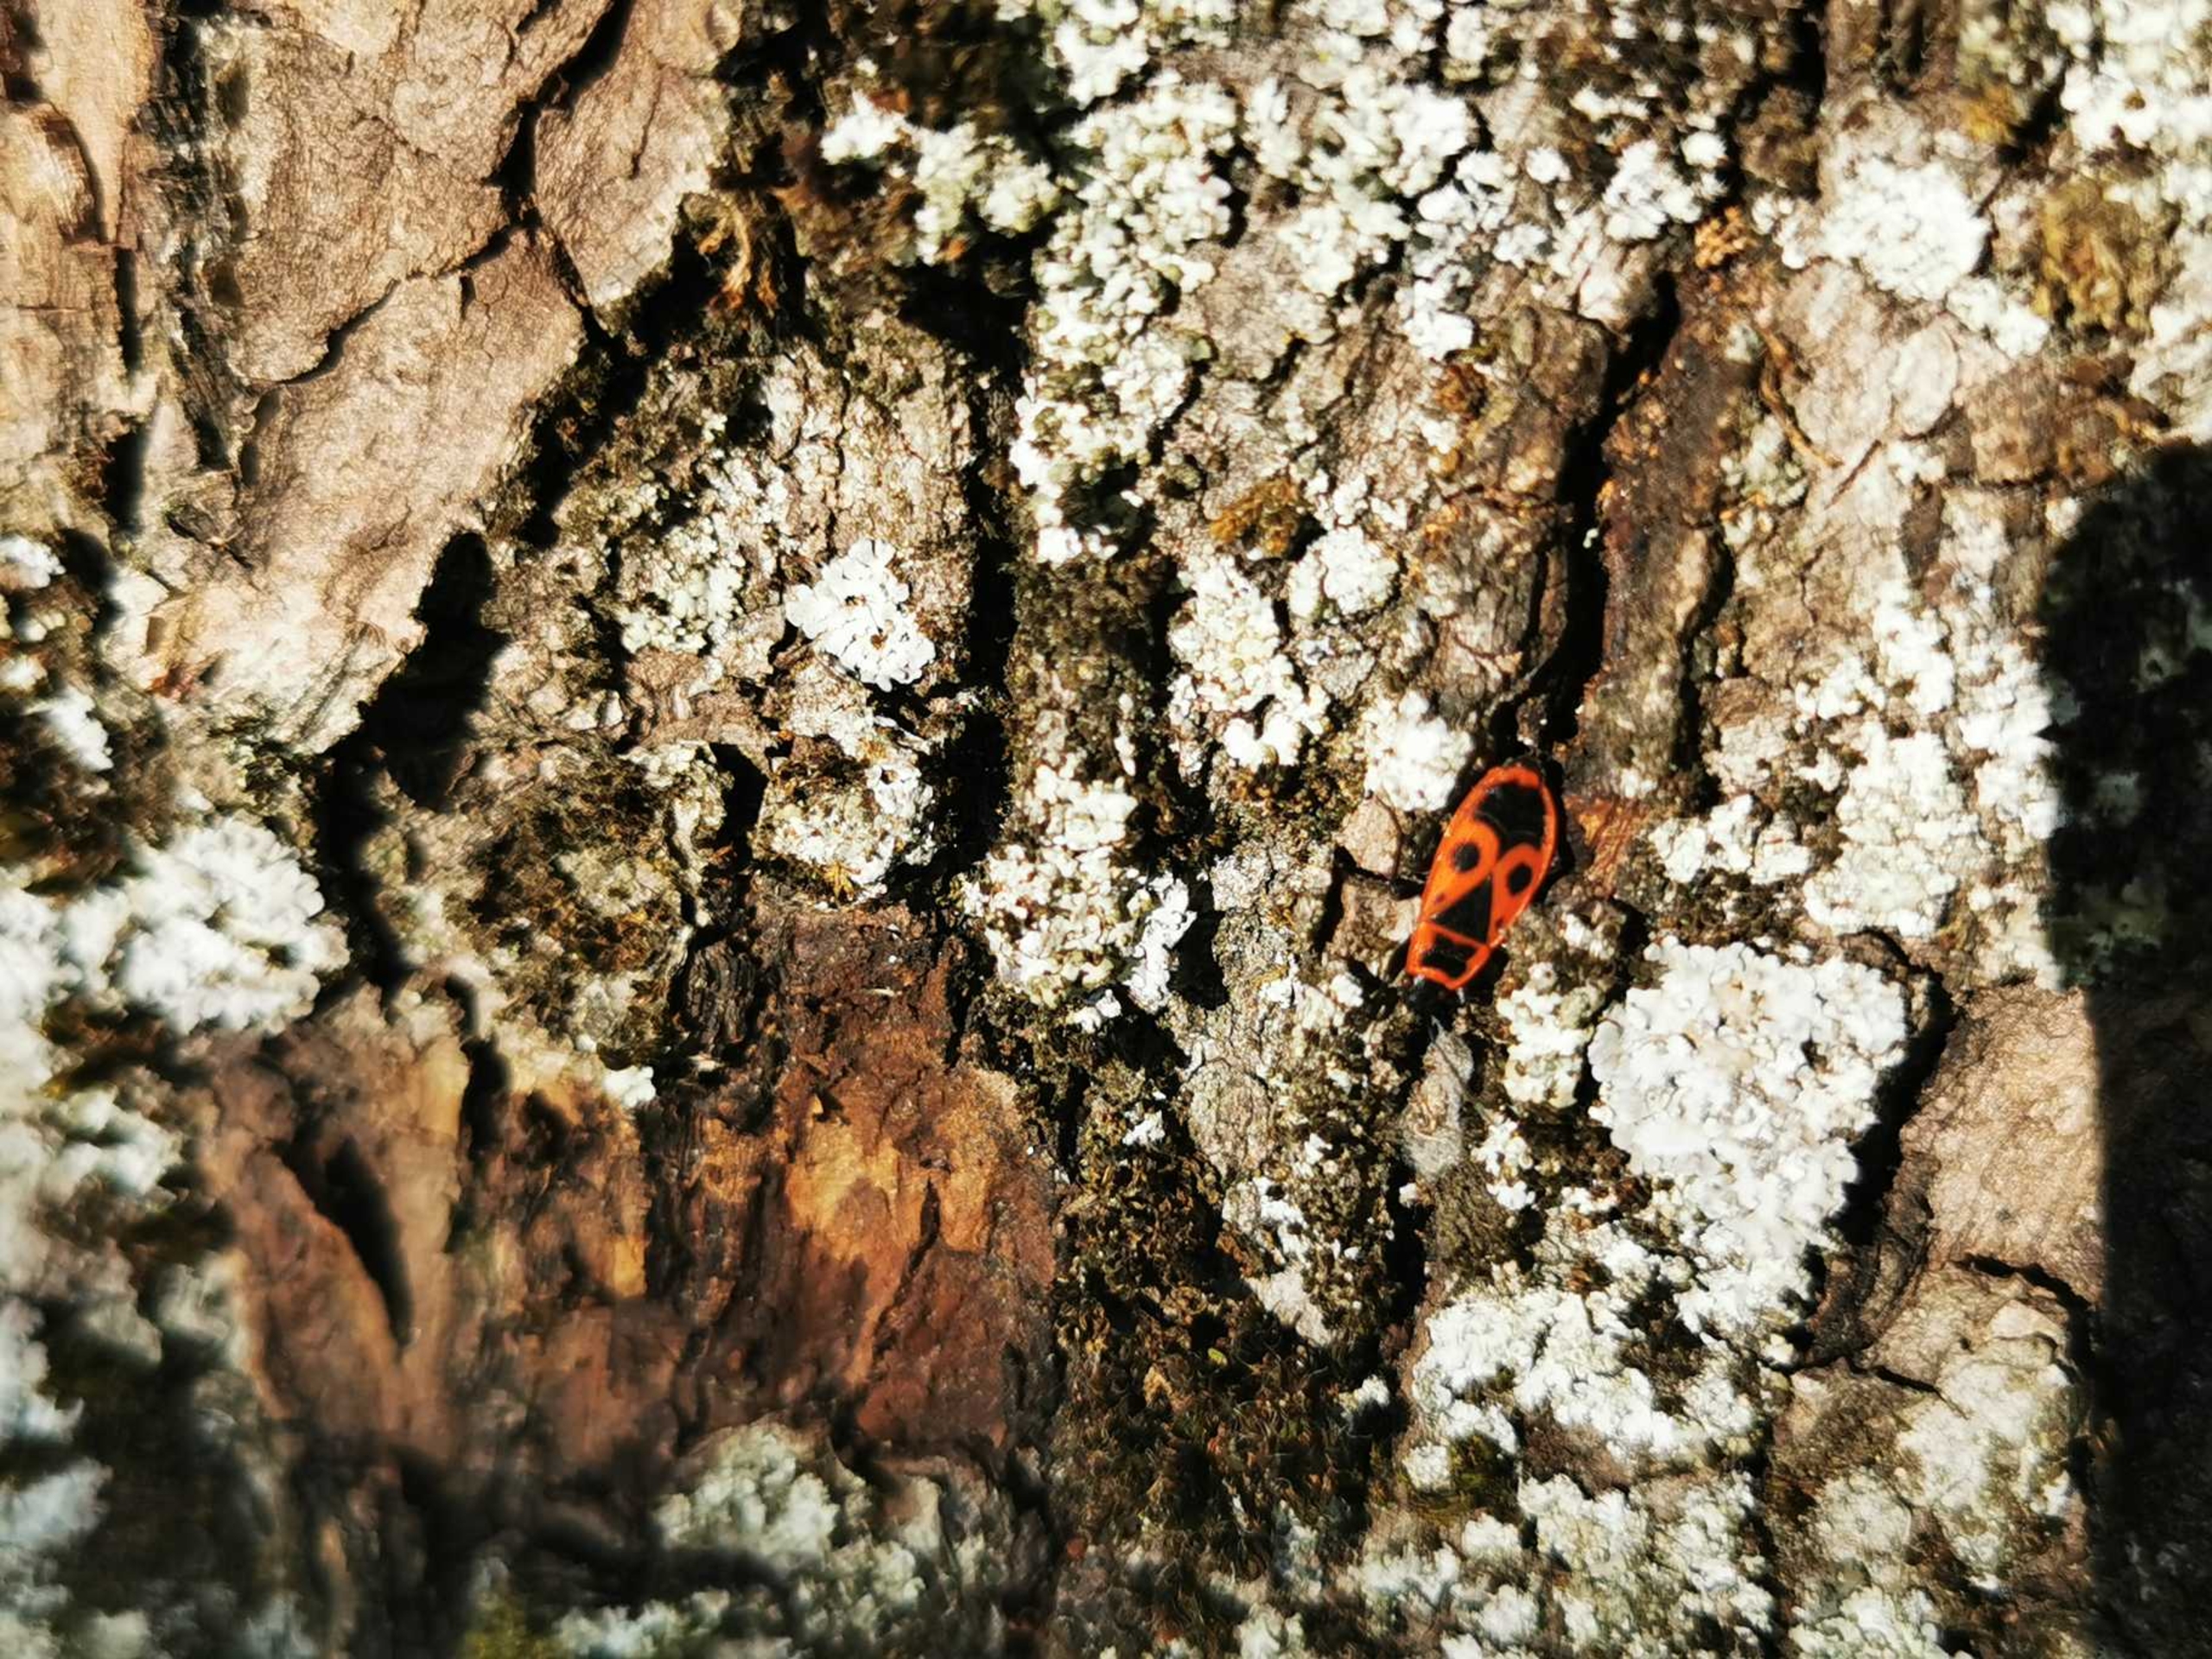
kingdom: Animalia
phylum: Arthropoda
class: Insecta
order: Hemiptera
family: Pyrrhocoridae
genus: Pyrrhocoris
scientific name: Pyrrhocoris apterus
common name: Ildtæge
